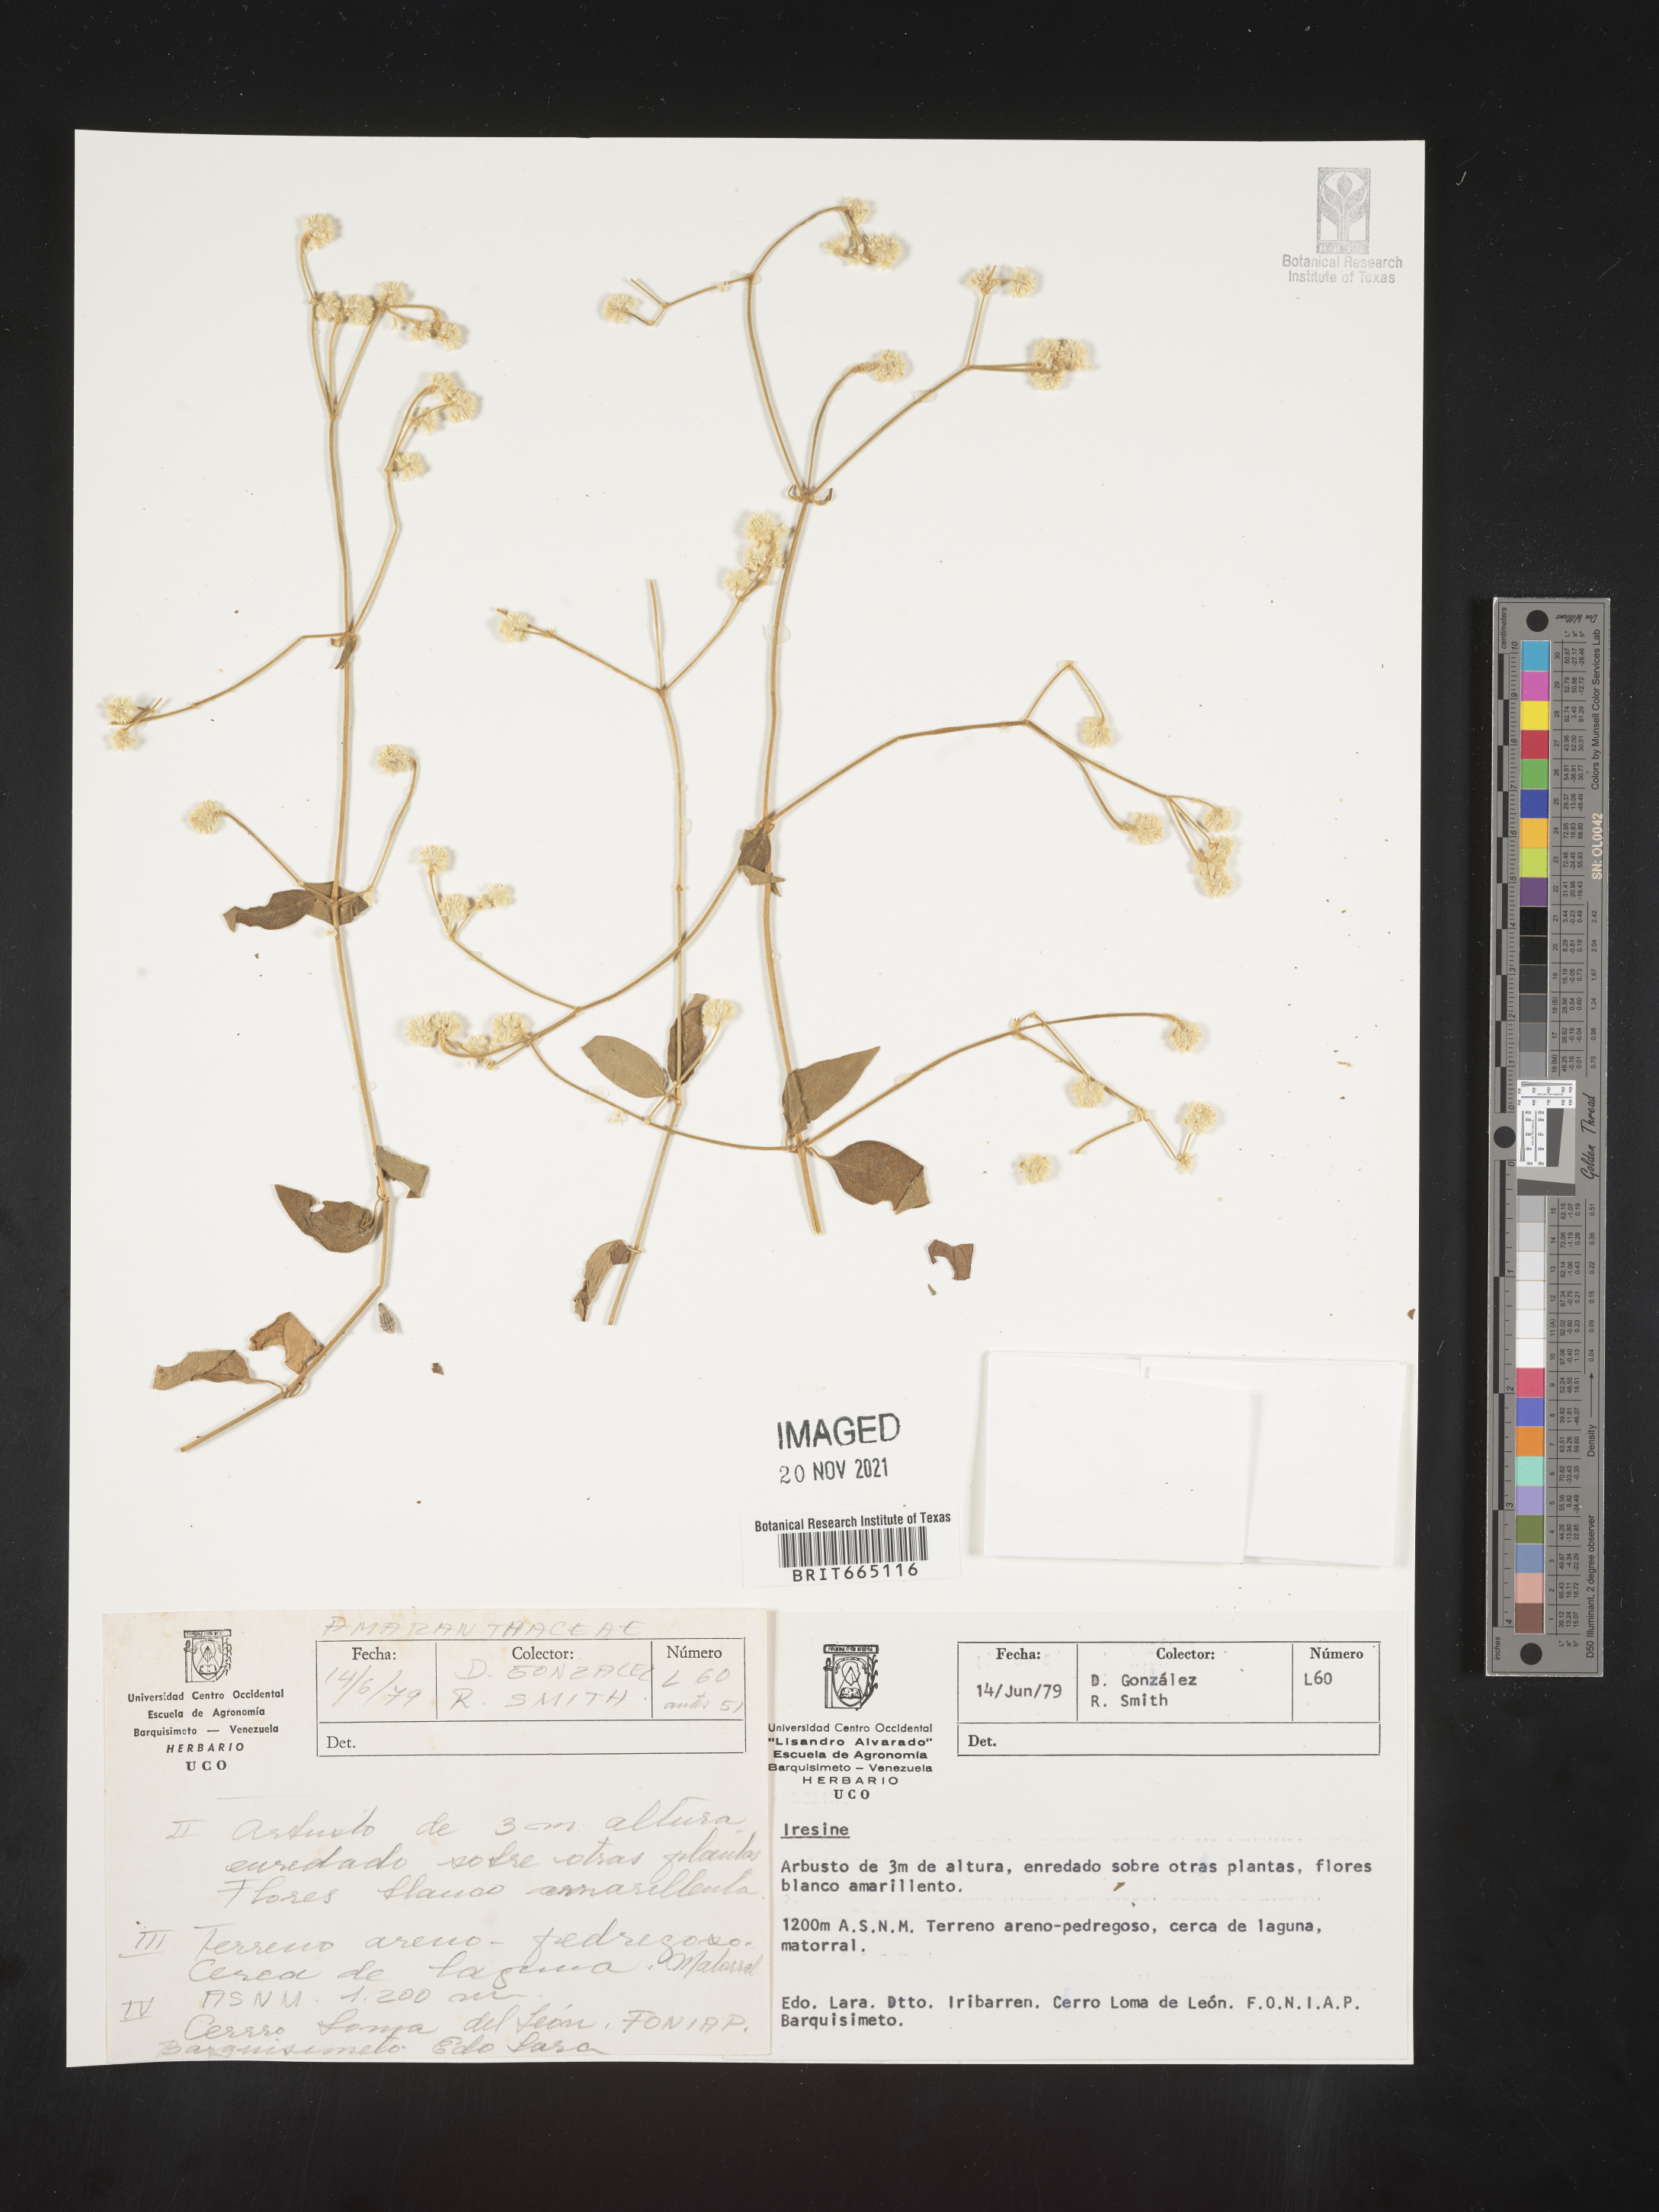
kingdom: Plantae
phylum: Tracheophyta
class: Magnoliopsida
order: Caryophyllales
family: Amaranthaceae
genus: Iresine
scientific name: Iresine
